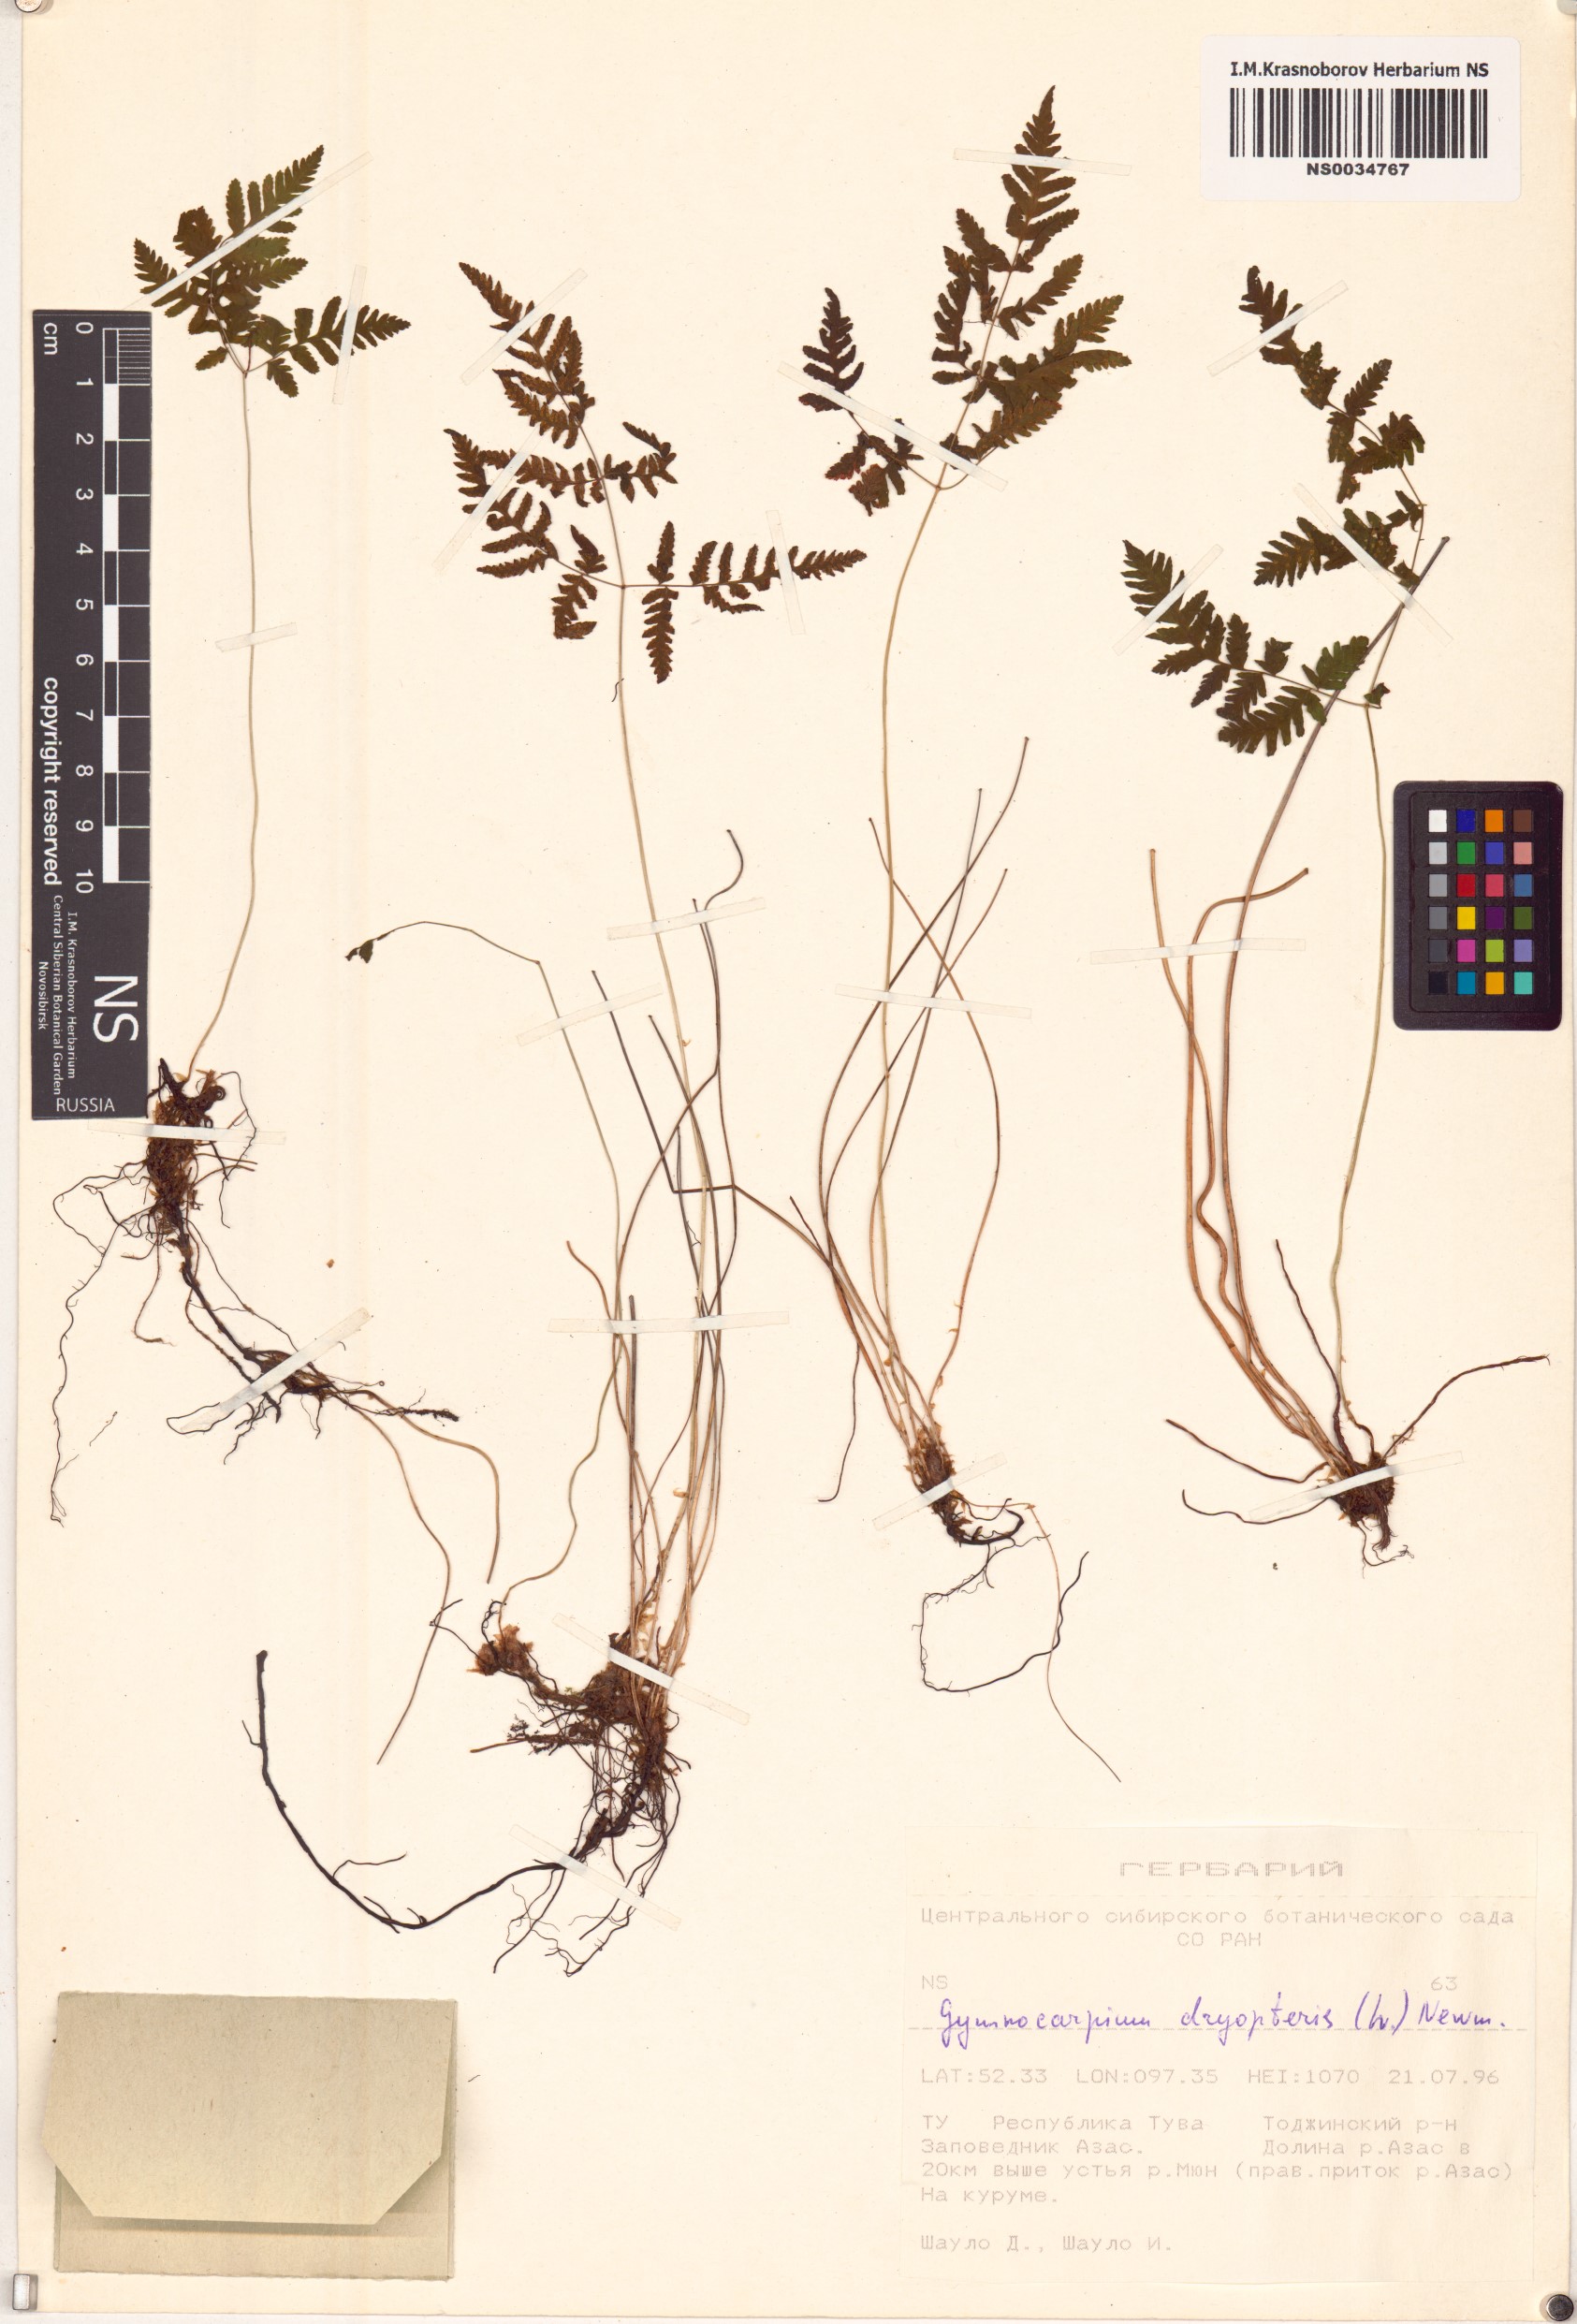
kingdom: Plantae
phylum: Tracheophyta
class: Polypodiopsida
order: Polypodiales
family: Cystopteridaceae
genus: Gymnocarpium
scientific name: Gymnocarpium dryopteris
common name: Oak fern
